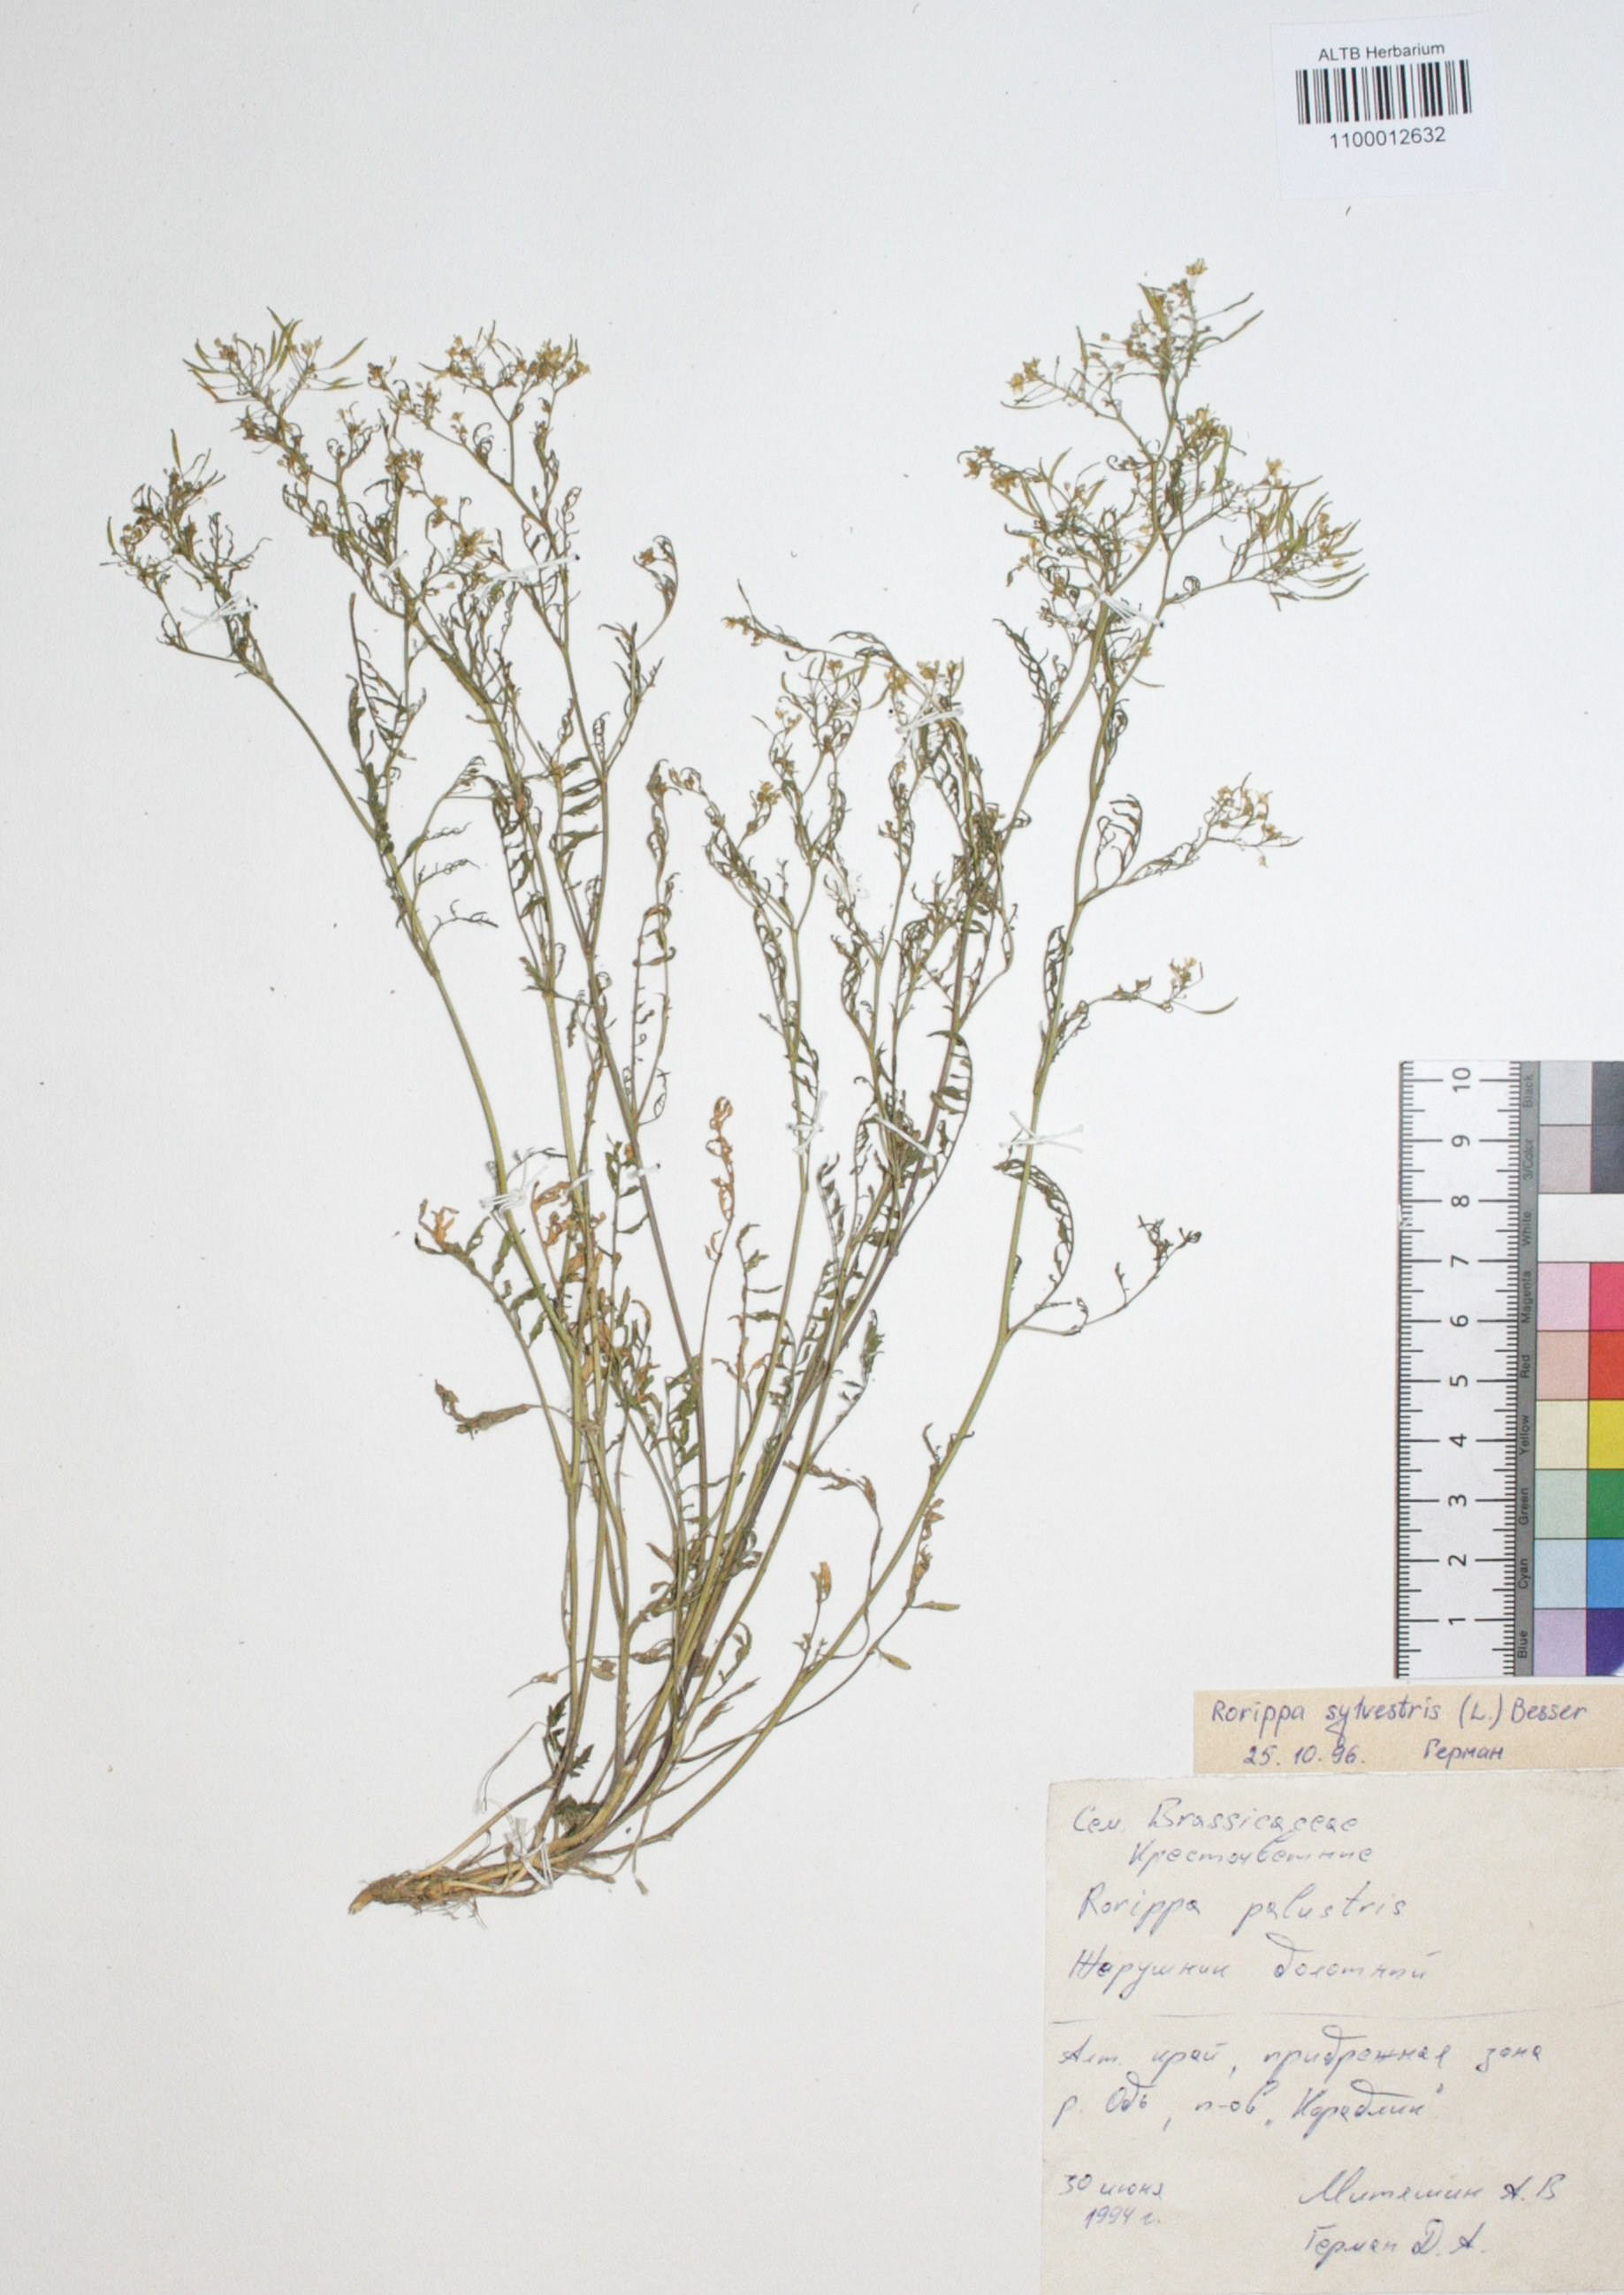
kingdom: Plantae
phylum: Tracheophyta
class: Magnoliopsida
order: Brassicales
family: Brassicaceae
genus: Rorippa
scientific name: Rorippa palustris
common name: Marsh yellow-cress
